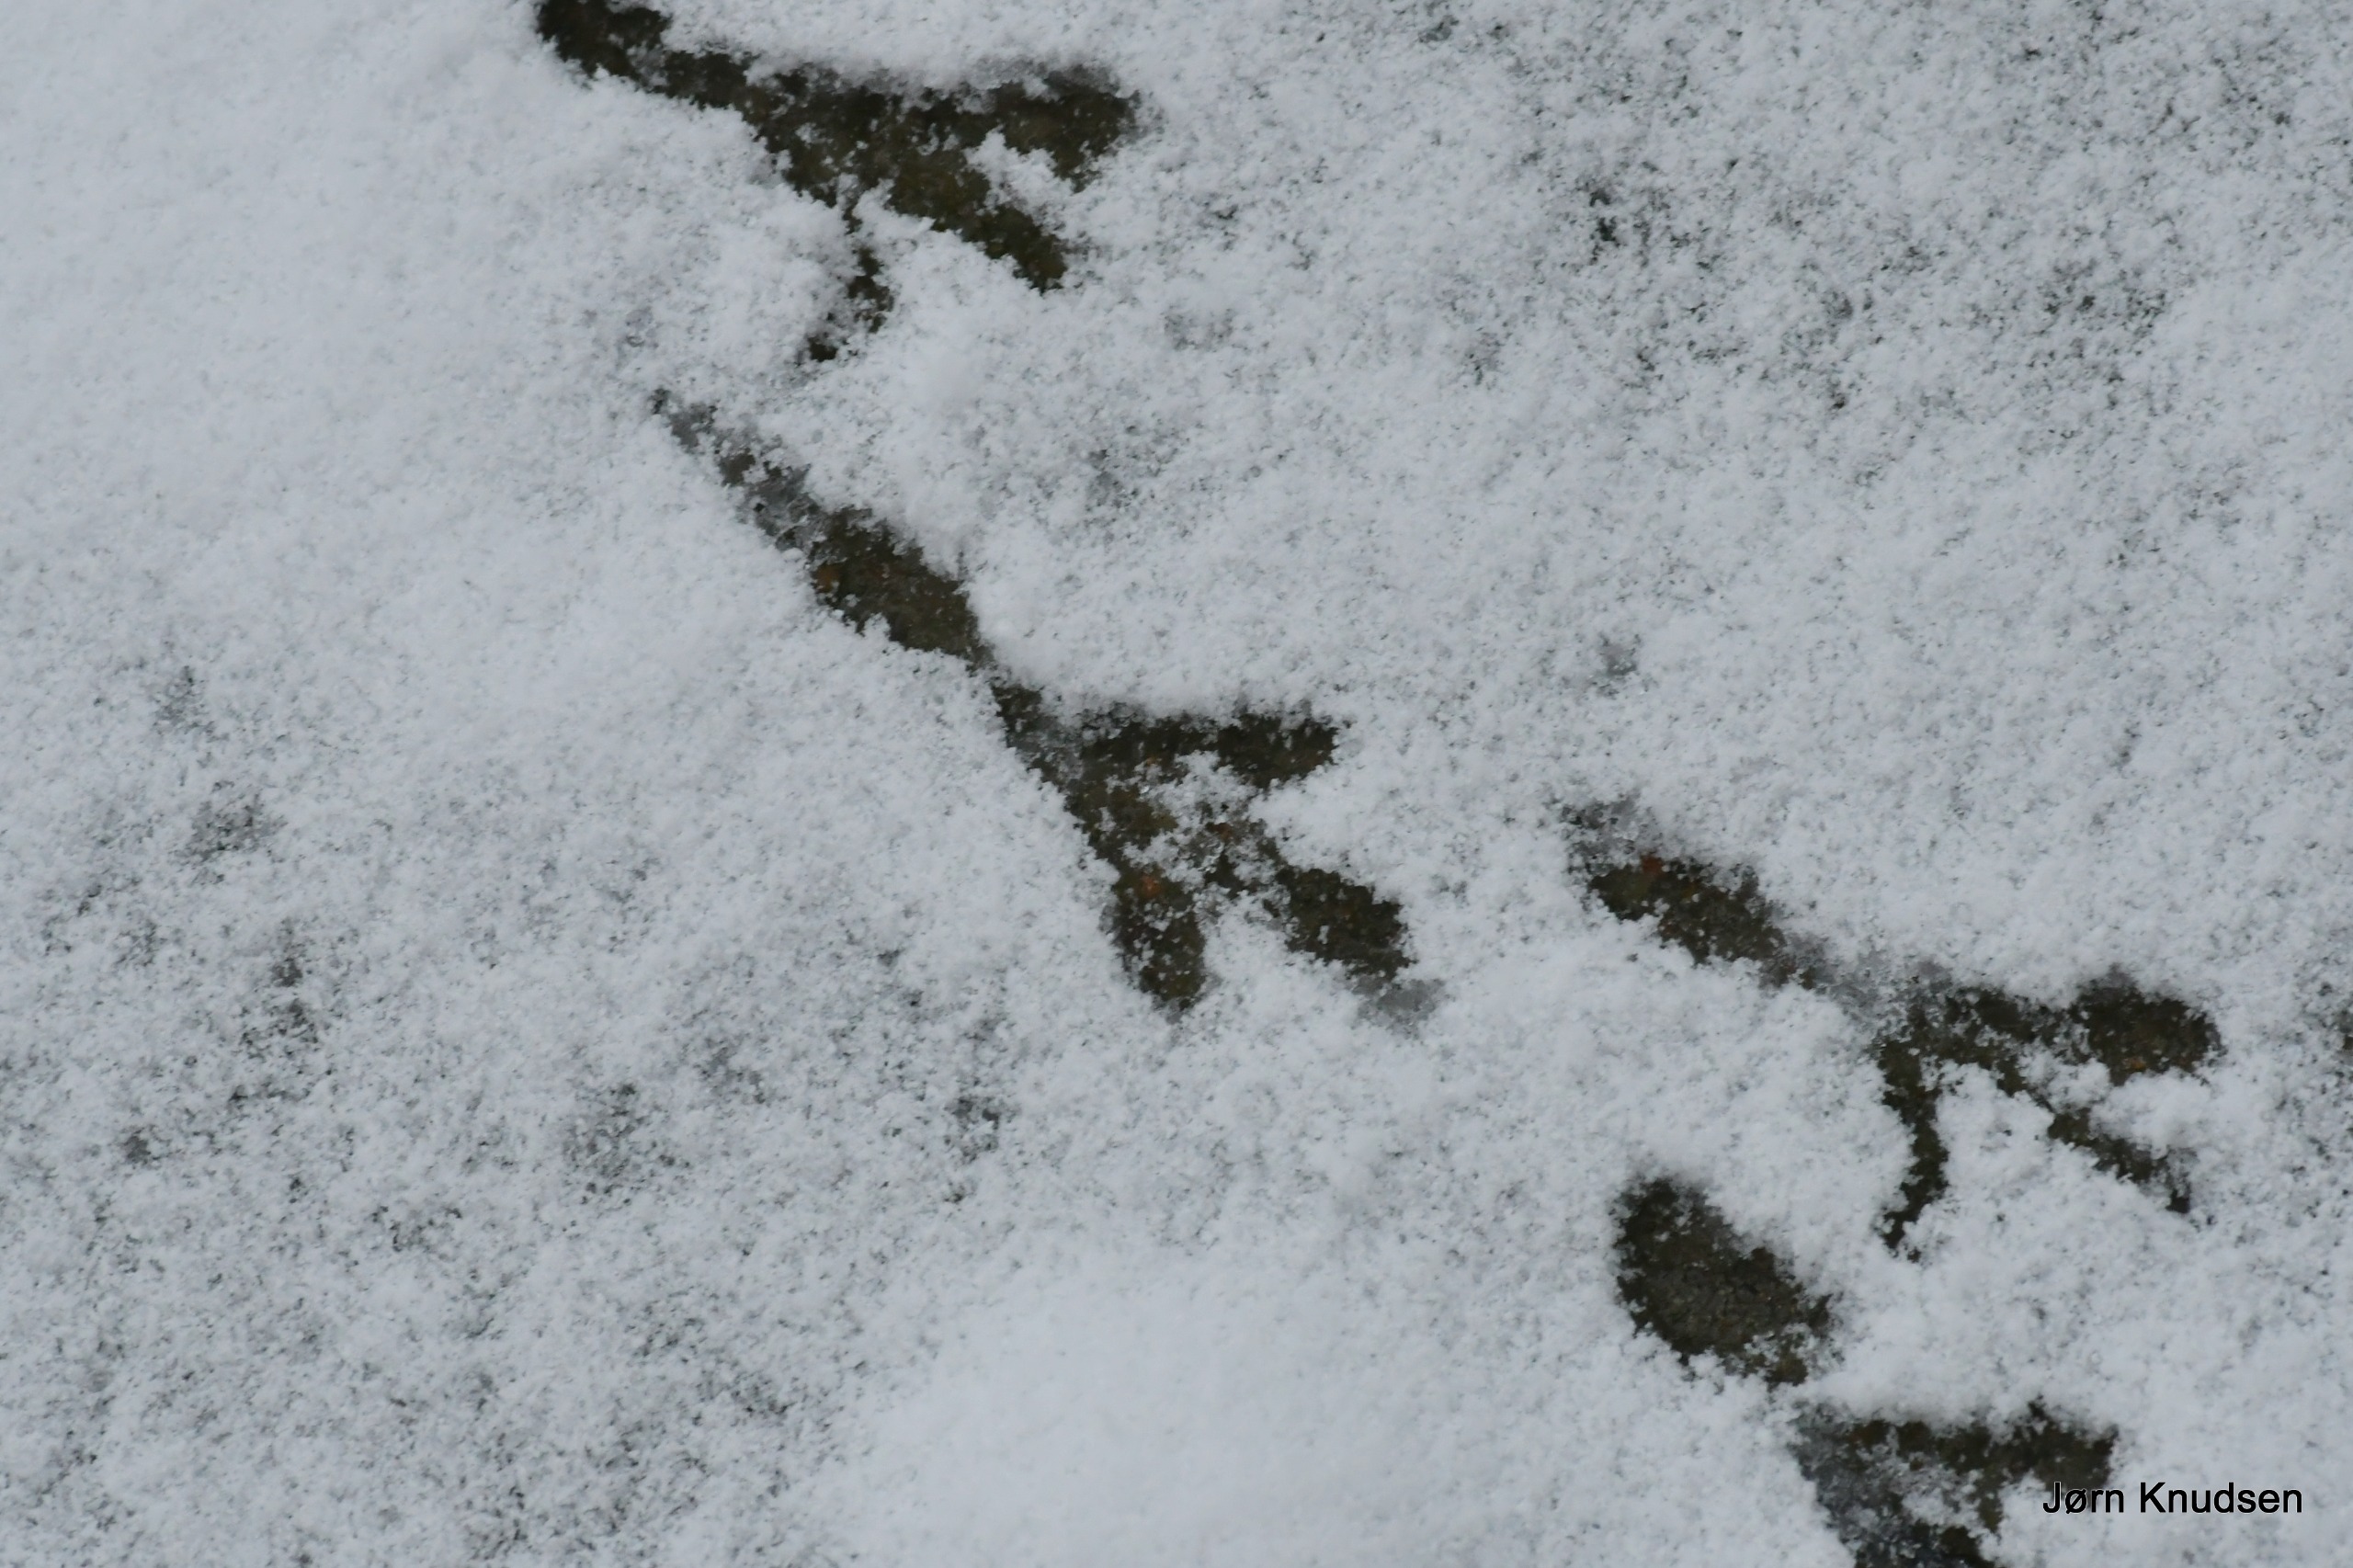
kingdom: Animalia
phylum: Chordata
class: Aves
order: Passeriformes
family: Turdidae
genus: Turdus
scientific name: Turdus merula
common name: Solsort
